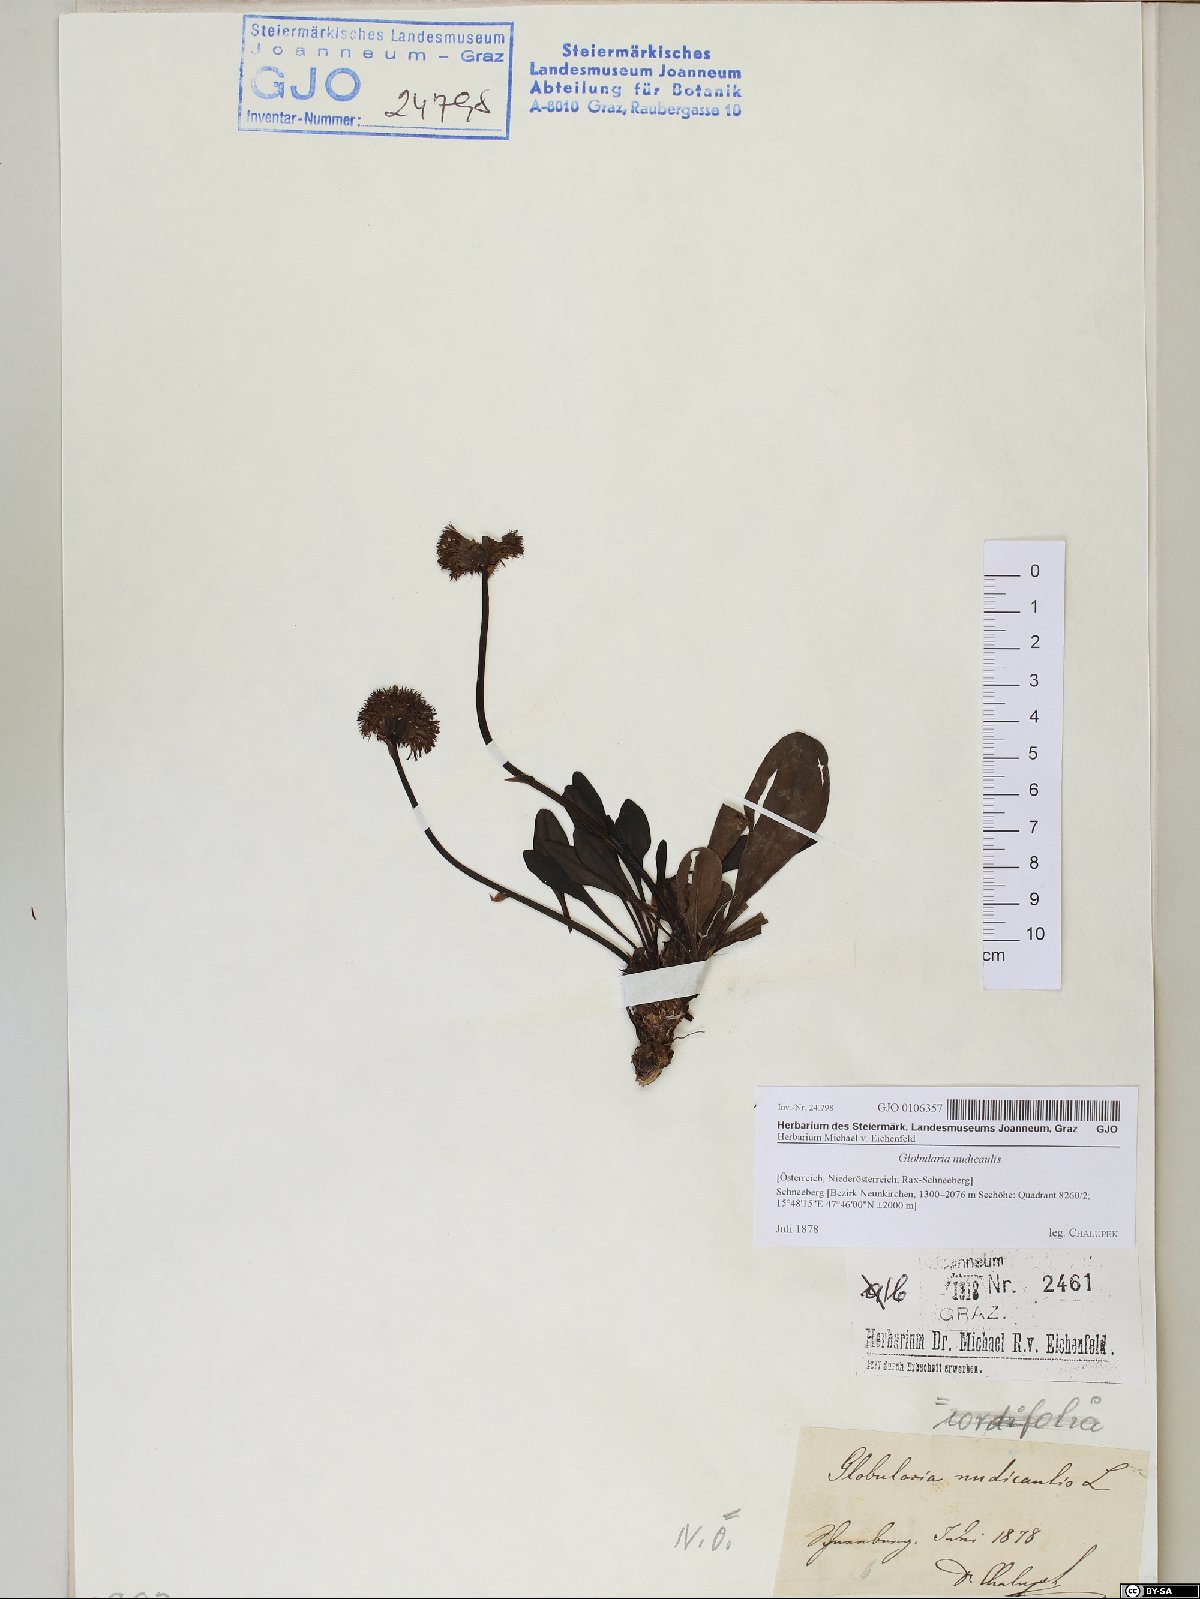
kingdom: Plantae
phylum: Tracheophyta
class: Magnoliopsida
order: Lamiales
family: Plantaginaceae
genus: Globularia
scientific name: Globularia nudicaulis
